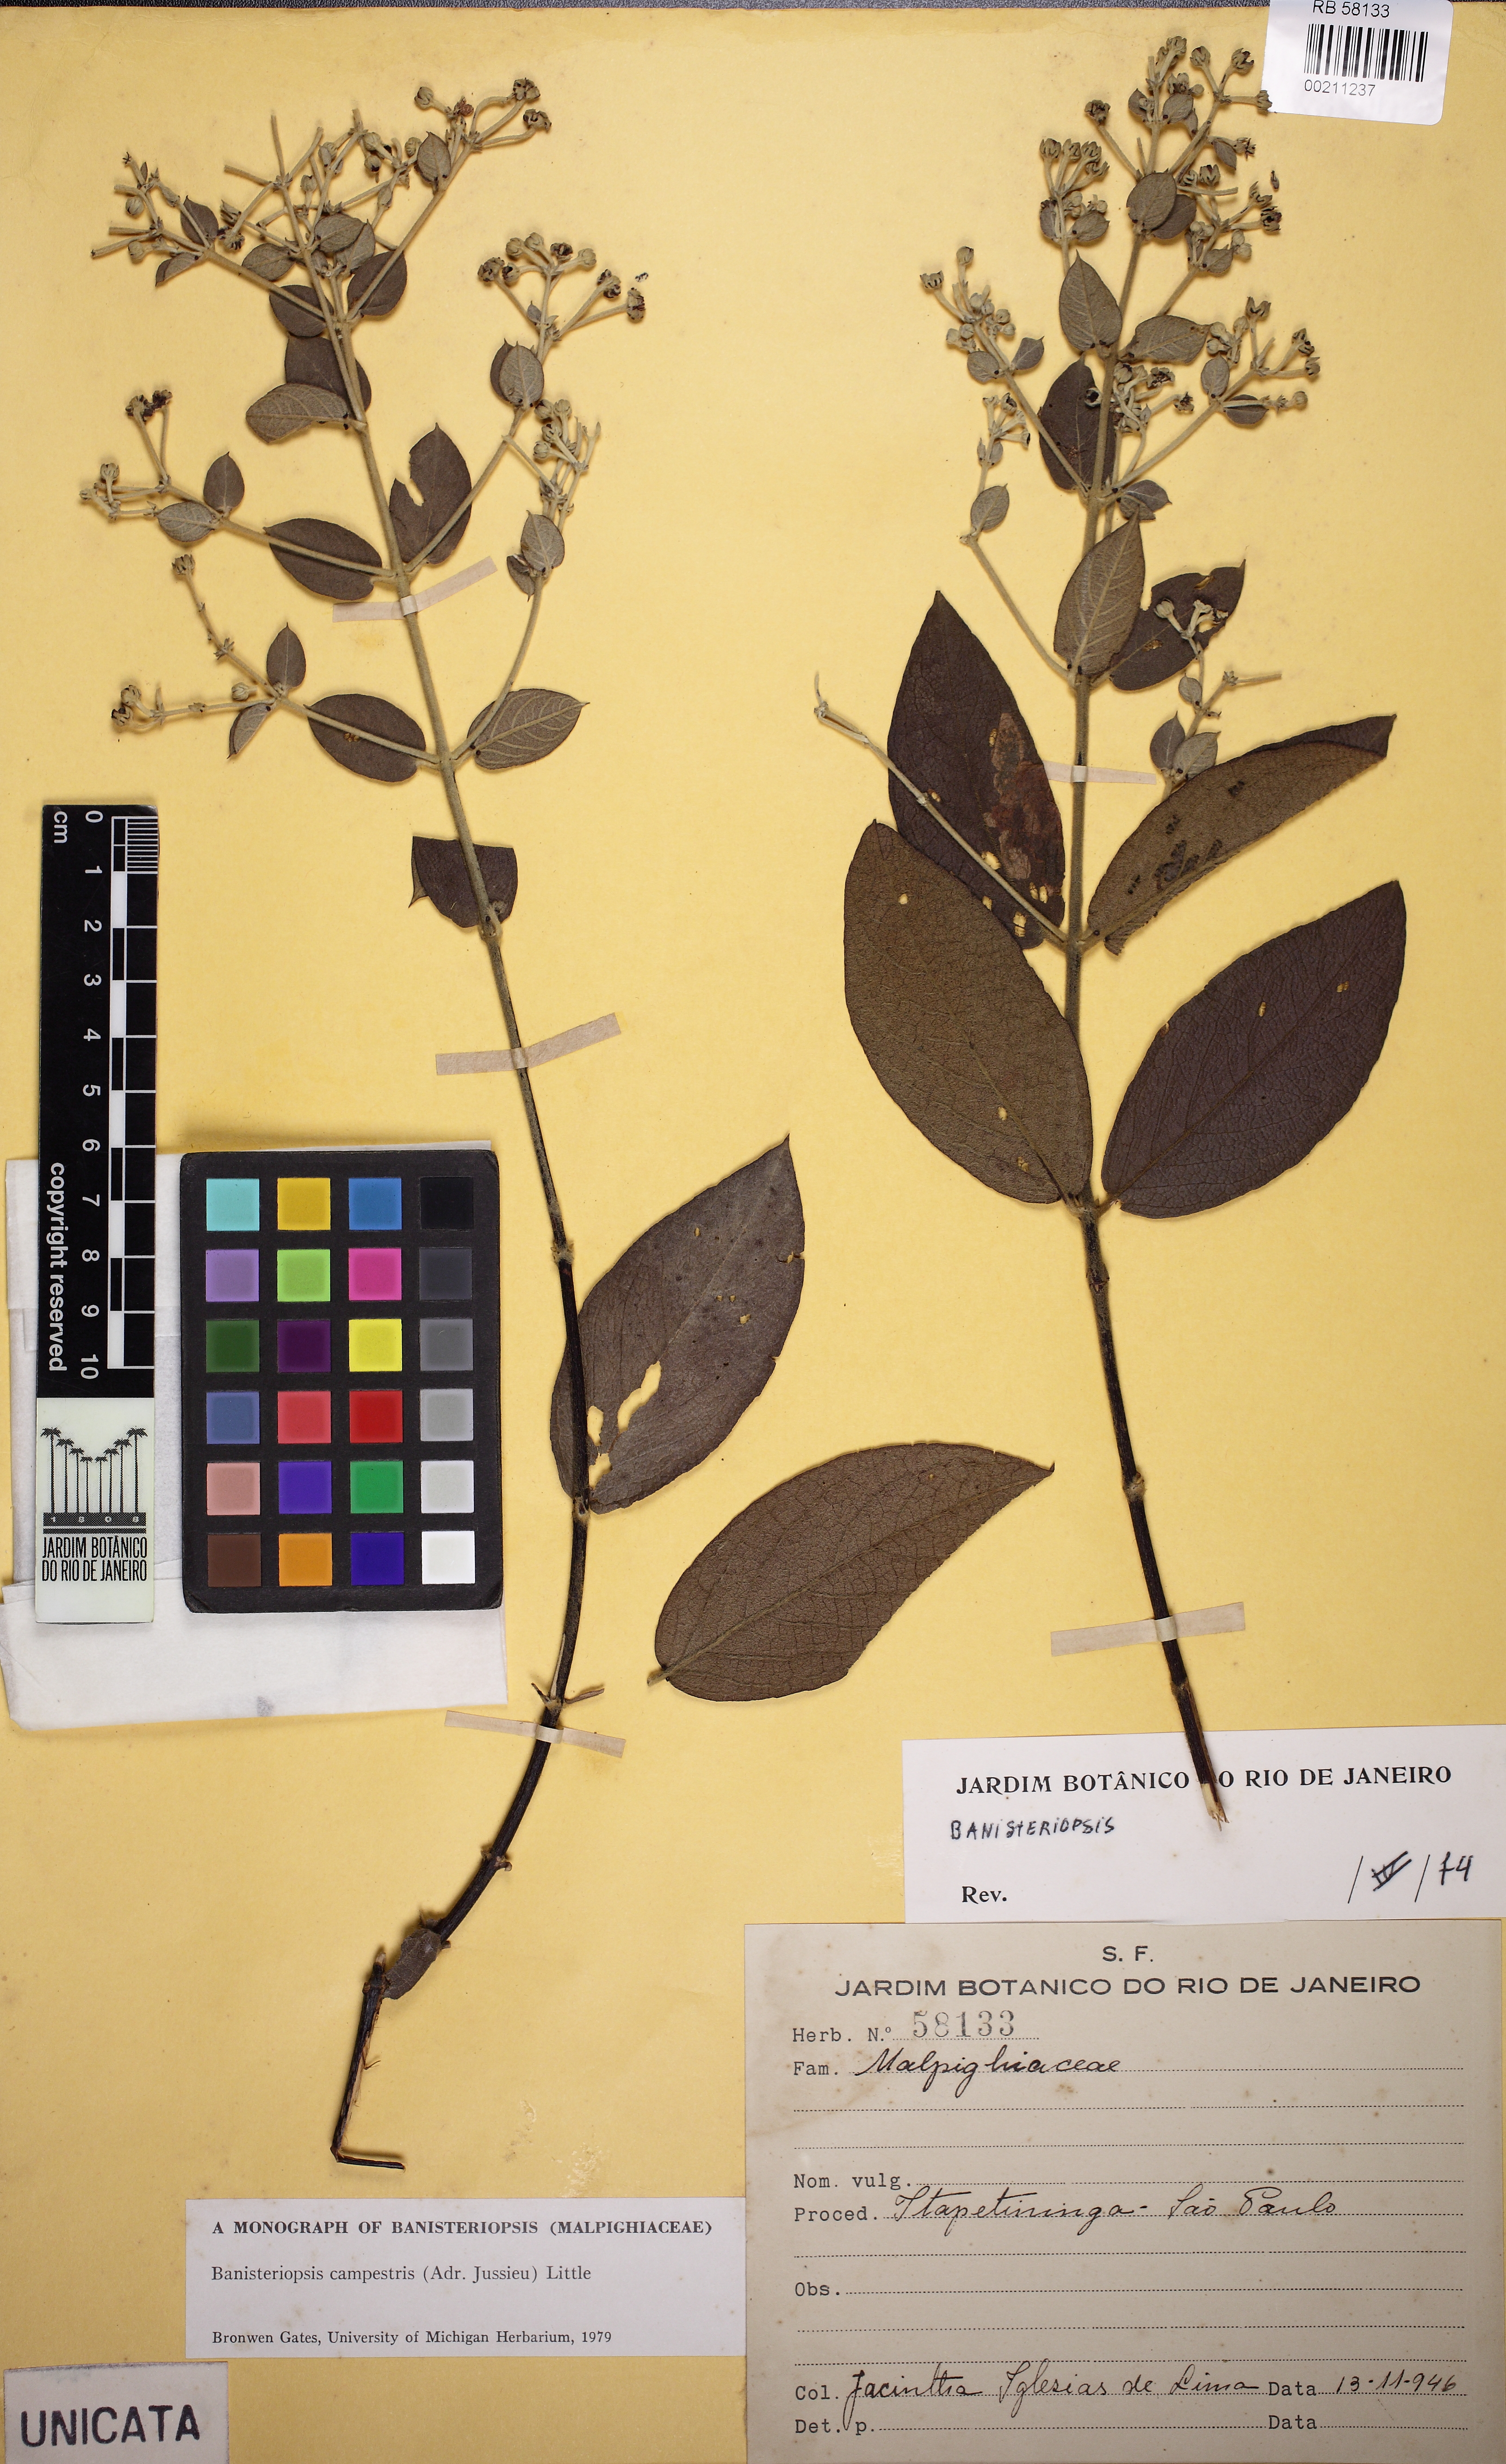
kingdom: Plantae
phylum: Tracheophyta
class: Magnoliopsida
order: Malpighiales
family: Malpighiaceae
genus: Banisteriopsis
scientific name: Banisteriopsis campestris
